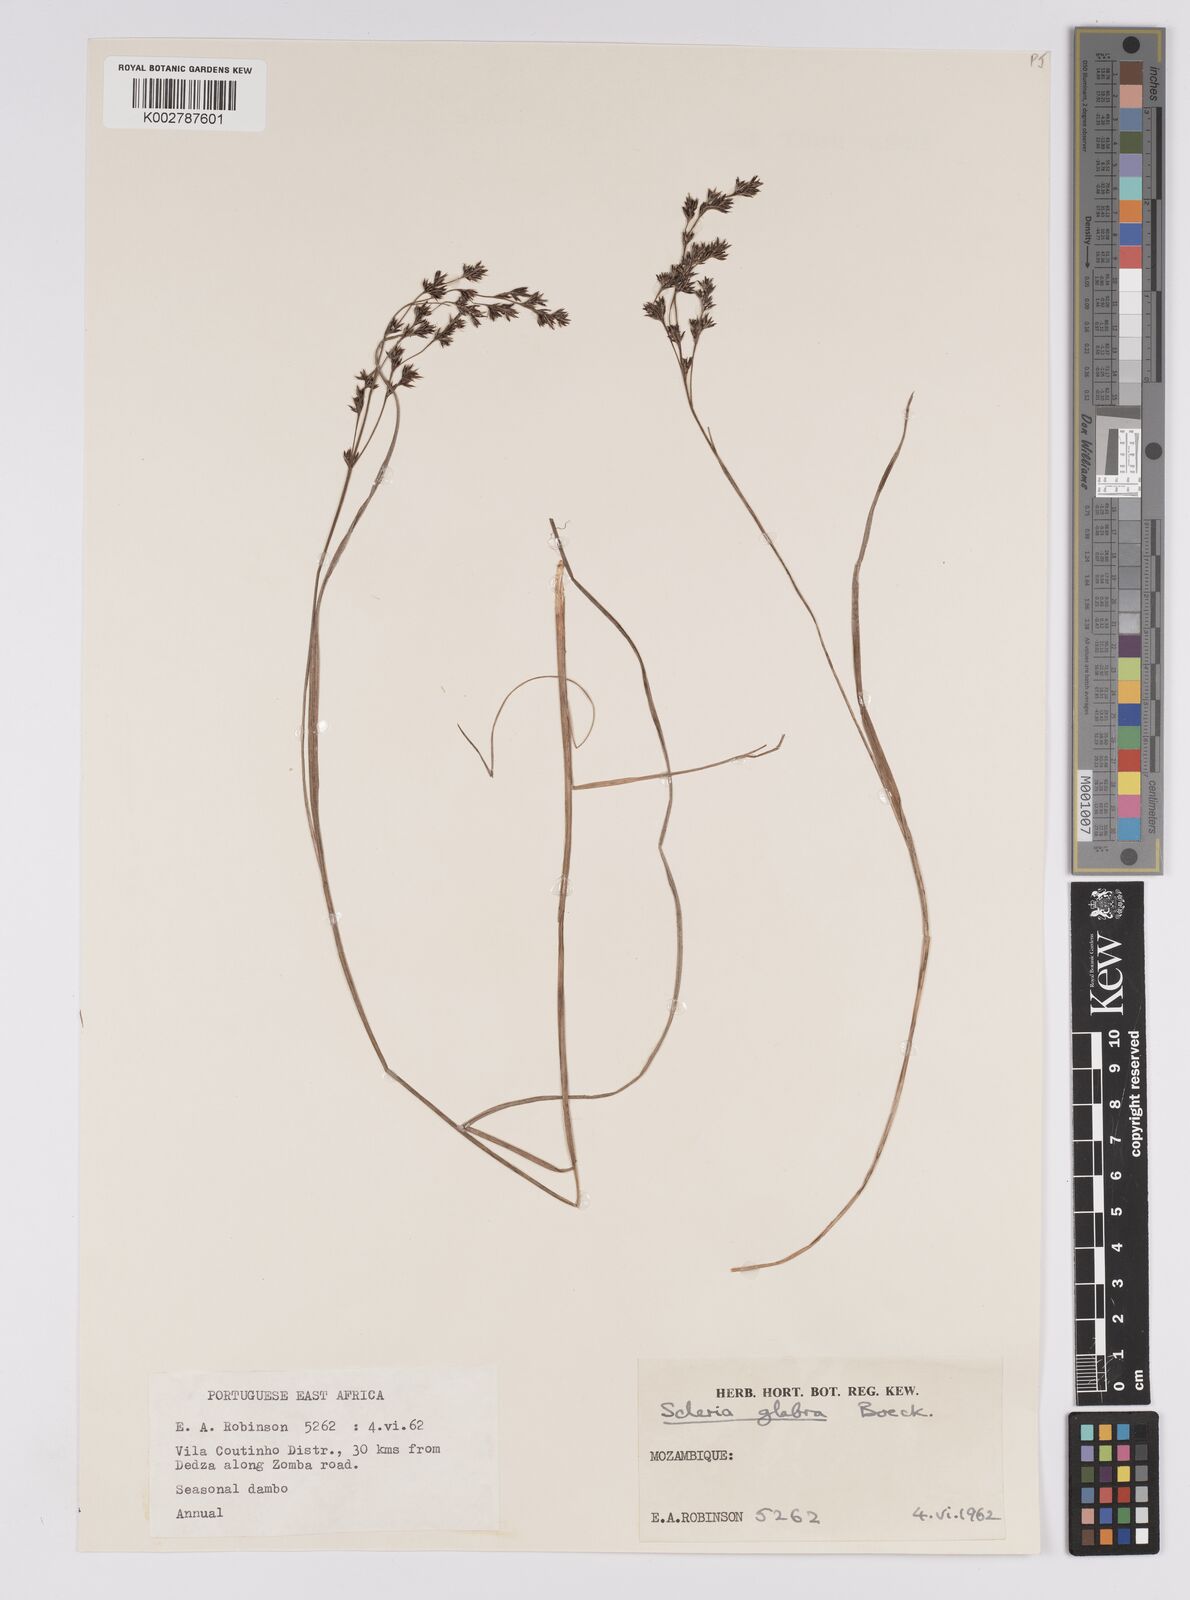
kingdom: Plantae
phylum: Tracheophyta
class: Liliopsida
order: Poales
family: Cyperaceae
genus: Scleria
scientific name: Scleria glabra
